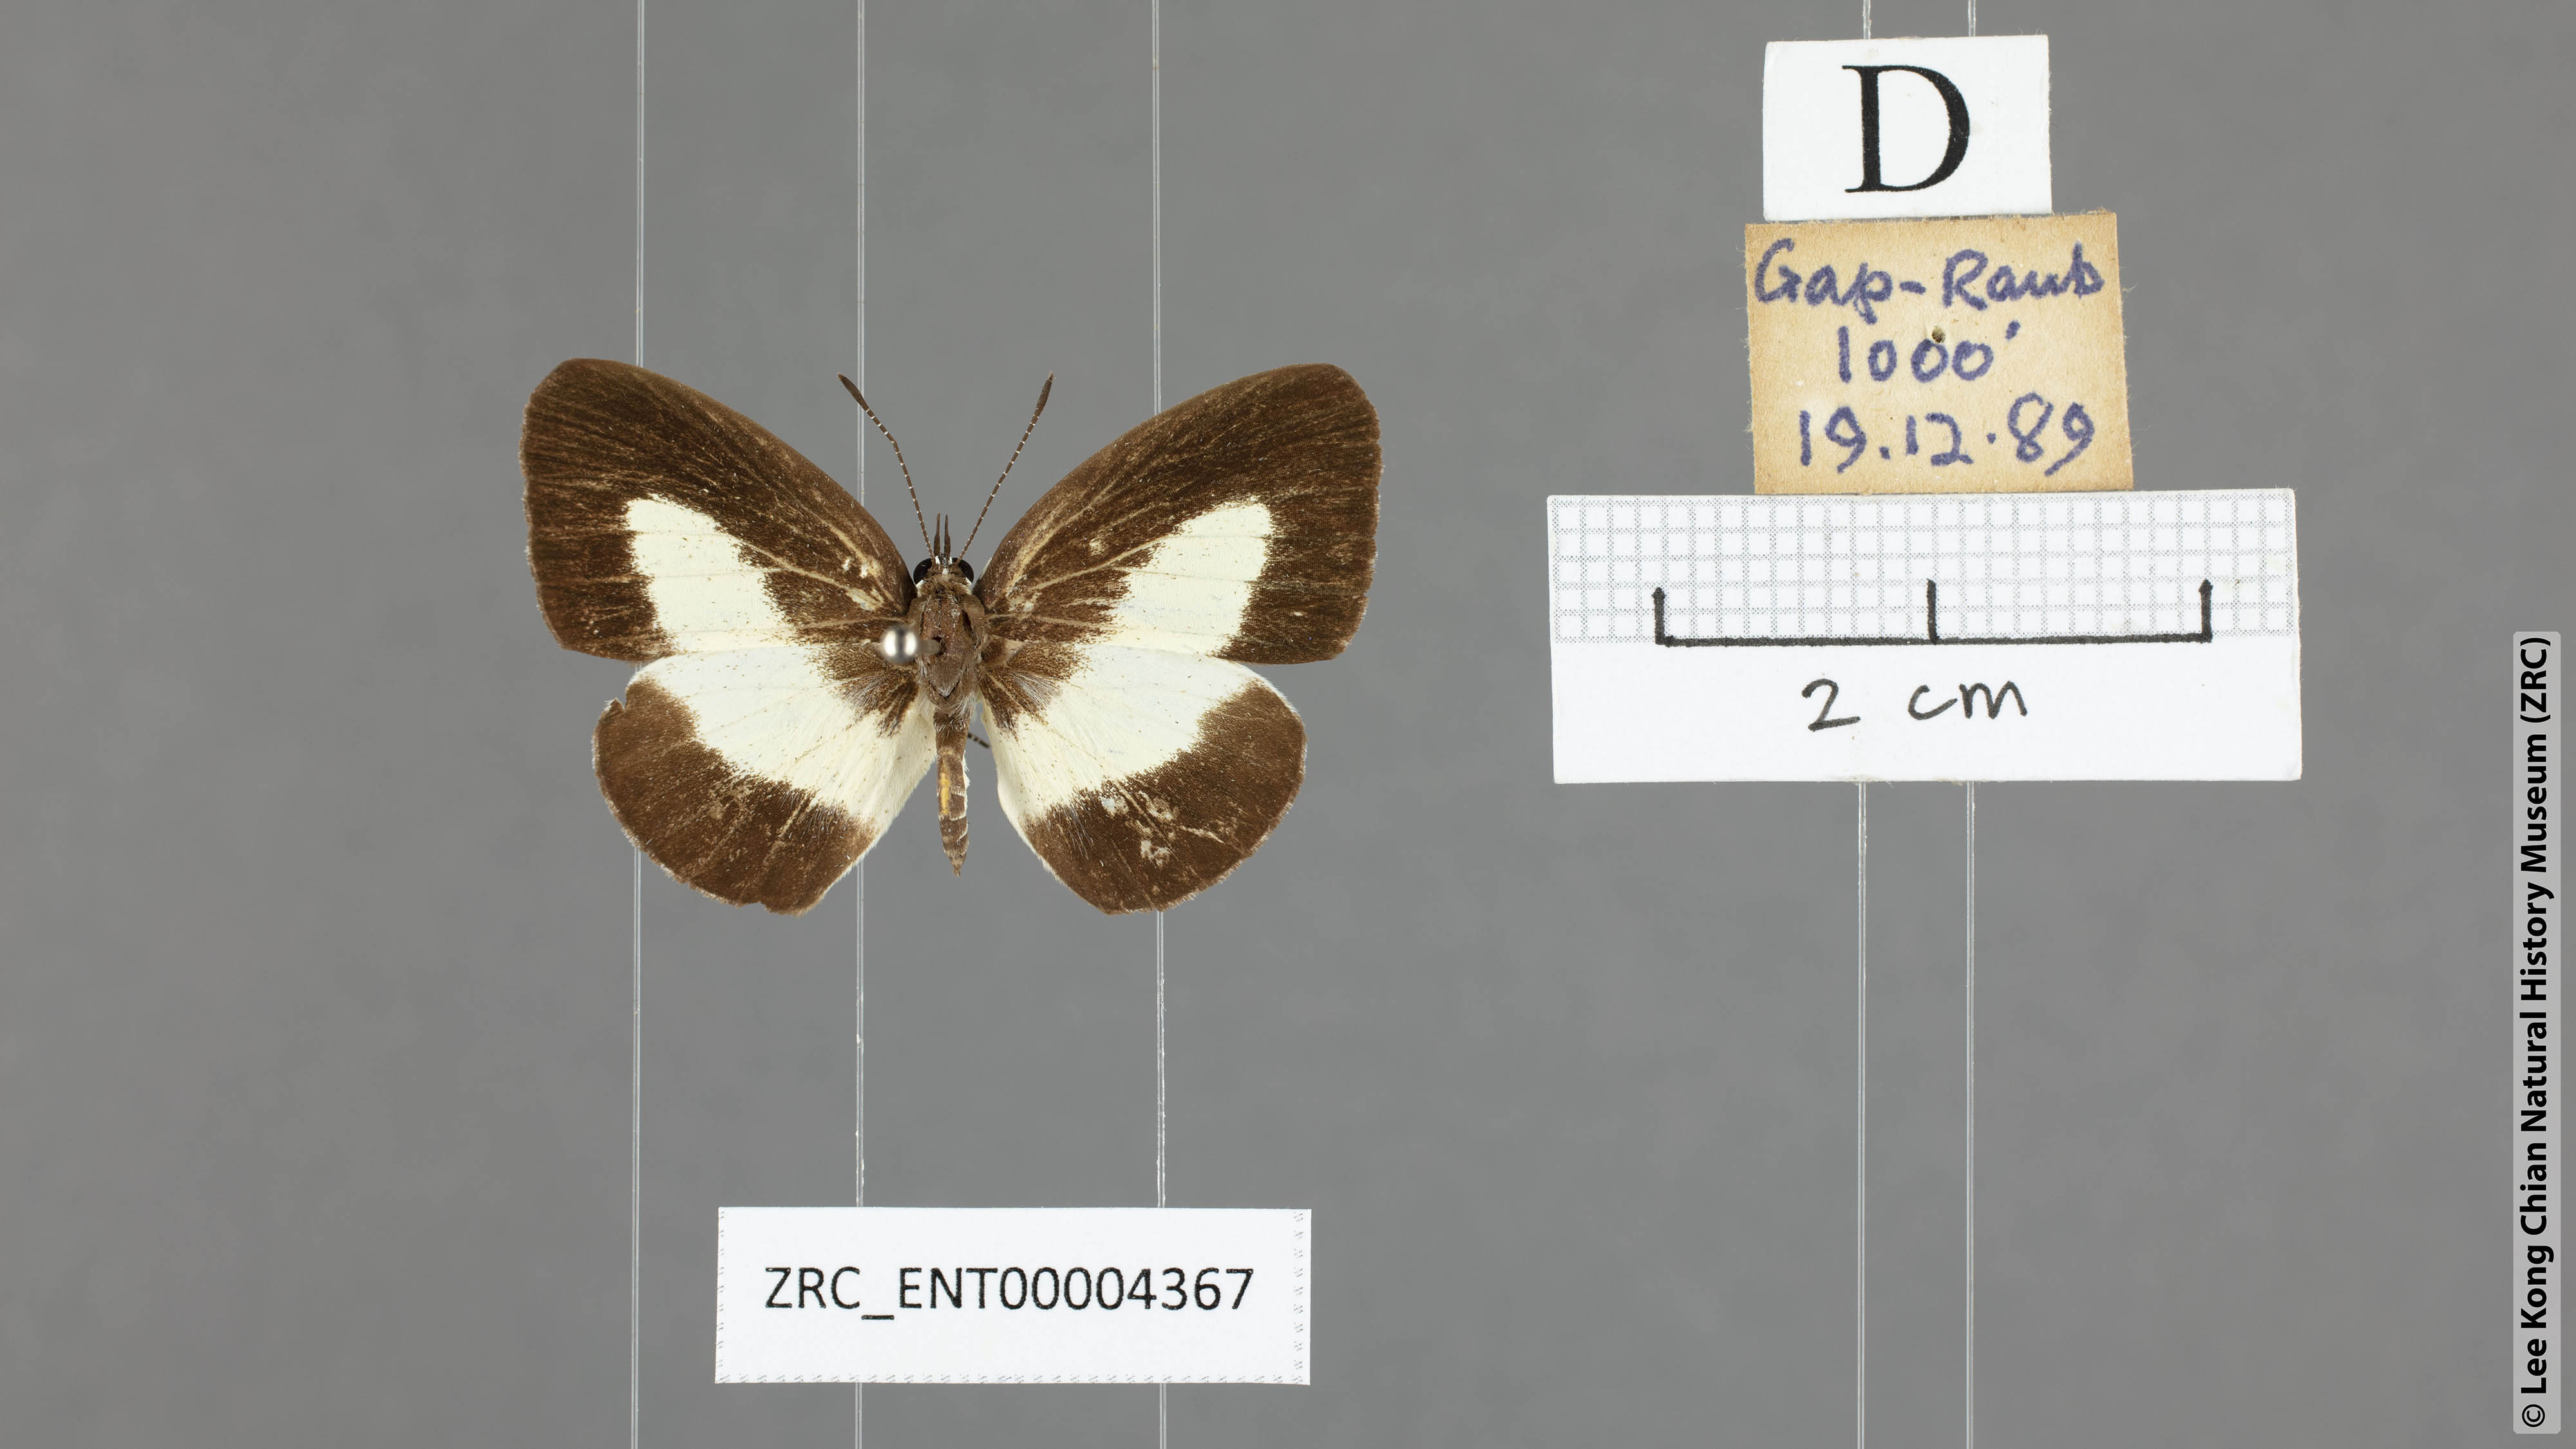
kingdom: Animalia
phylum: Arthropoda
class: Insecta
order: Lepidoptera
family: Lycaenidae
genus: Lycaenopsis
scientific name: Lycaenopsis haraldus
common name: Felder's hedge blue
